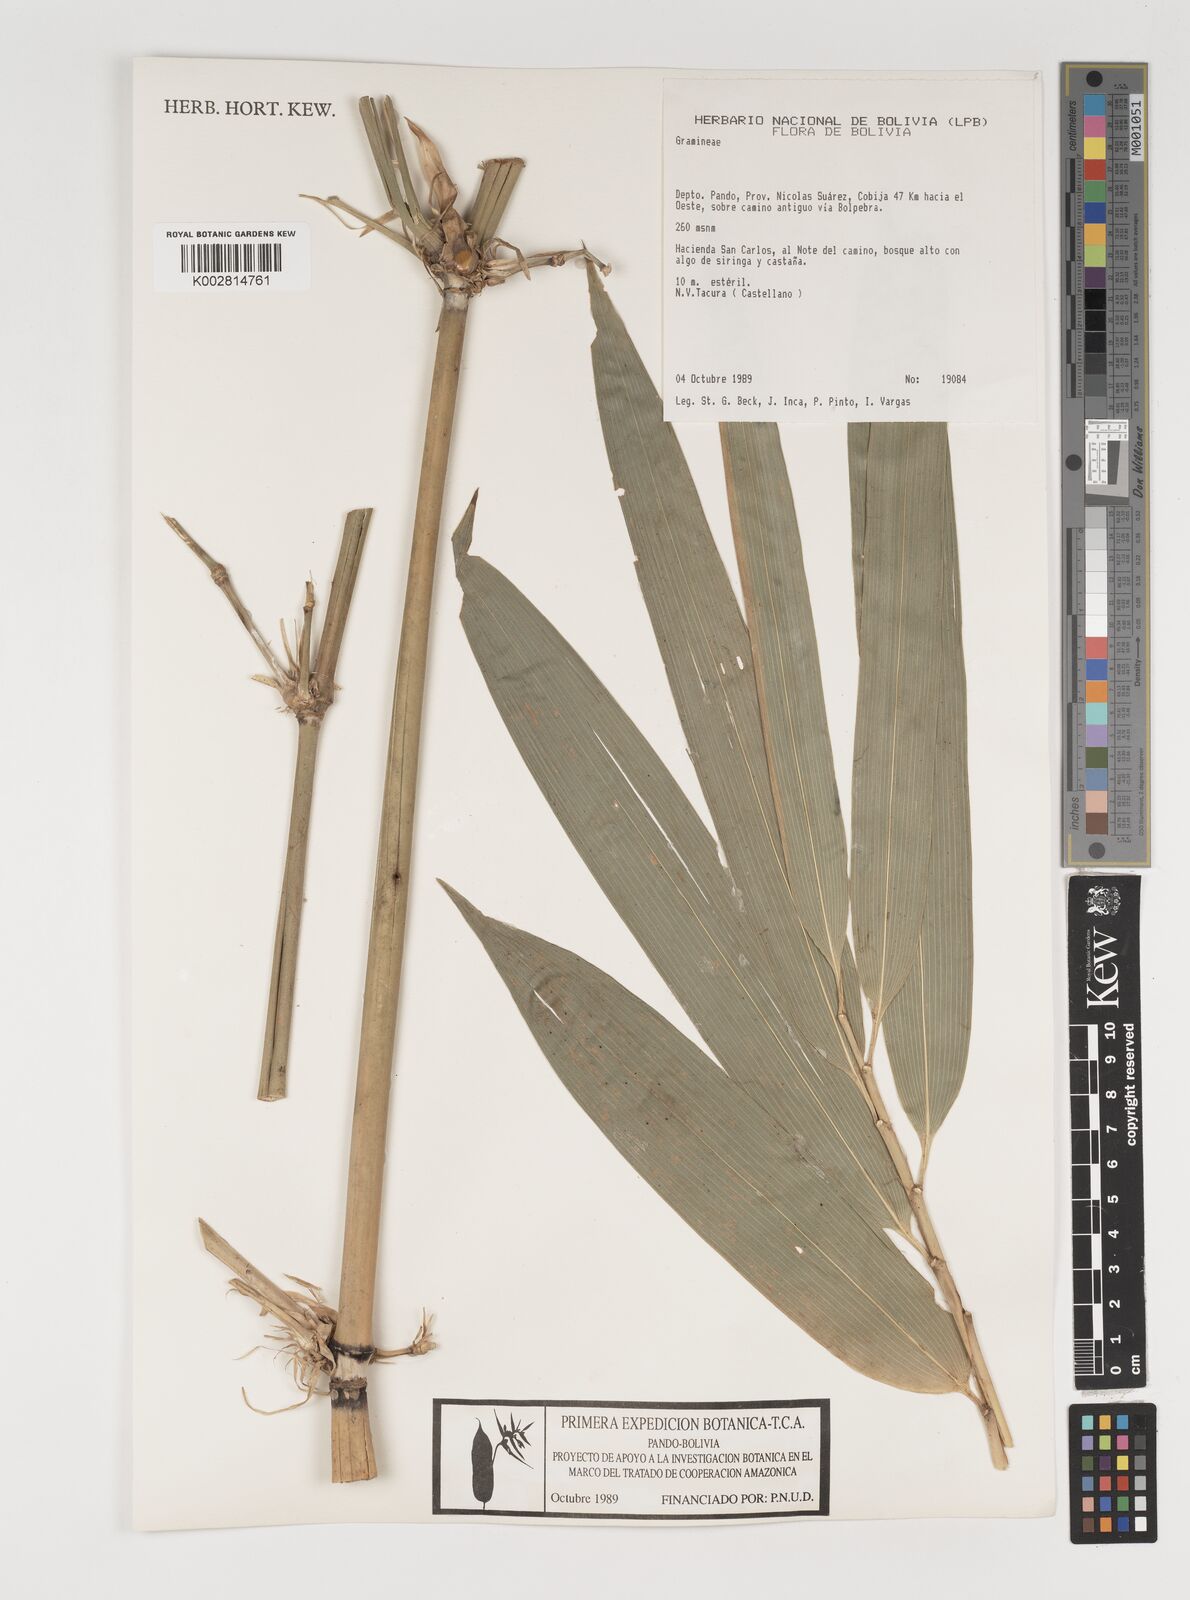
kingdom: Plantae
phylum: Tracheophyta
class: Liliopsida
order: Poales
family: Poaceae
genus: Guadua
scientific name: Guadua
